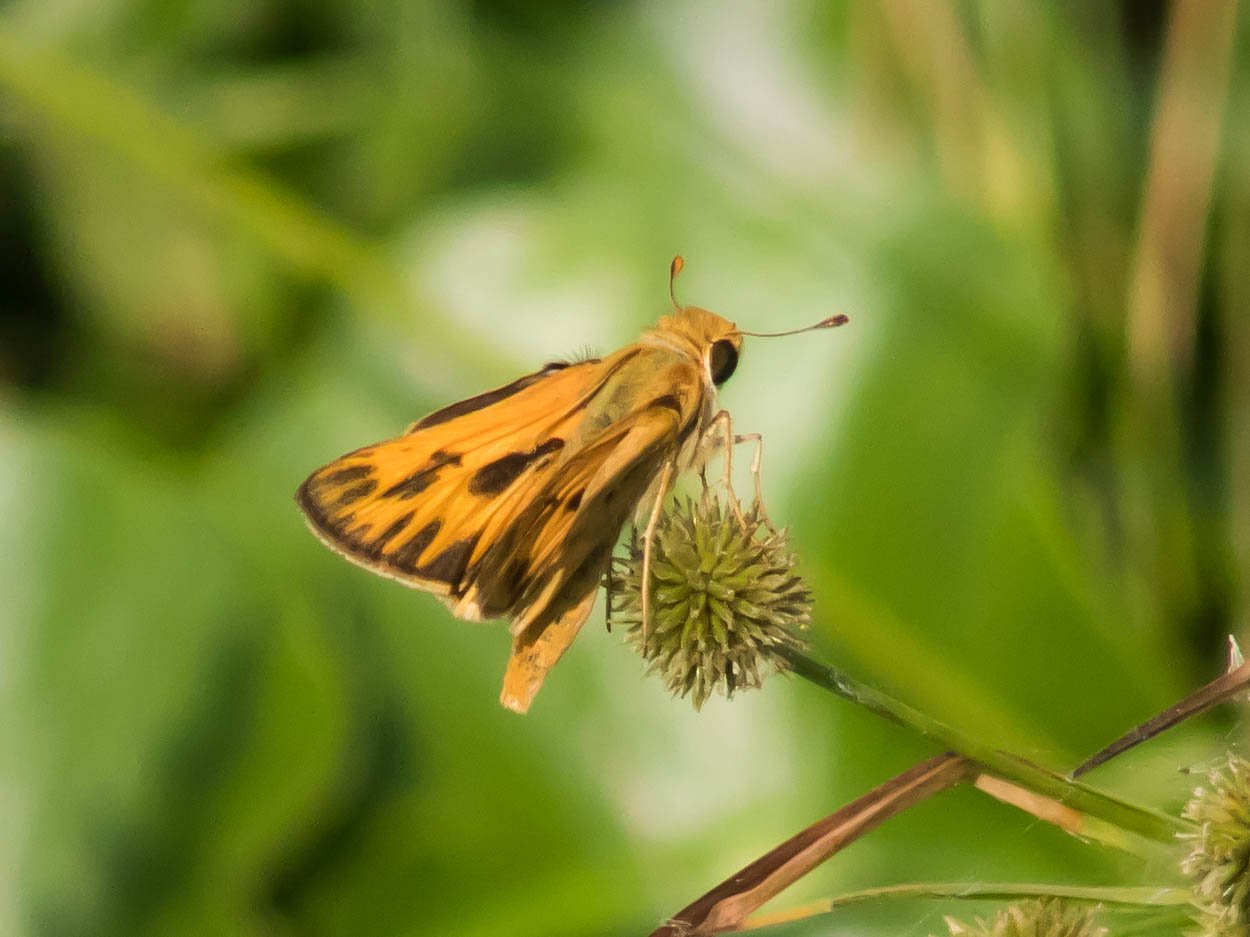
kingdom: Animalia
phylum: Arthropoda
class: Insecta
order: Lepidoptera
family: Hesperiidae
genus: Hylephila
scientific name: Hylephila phyleus
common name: Fiery Skipper
